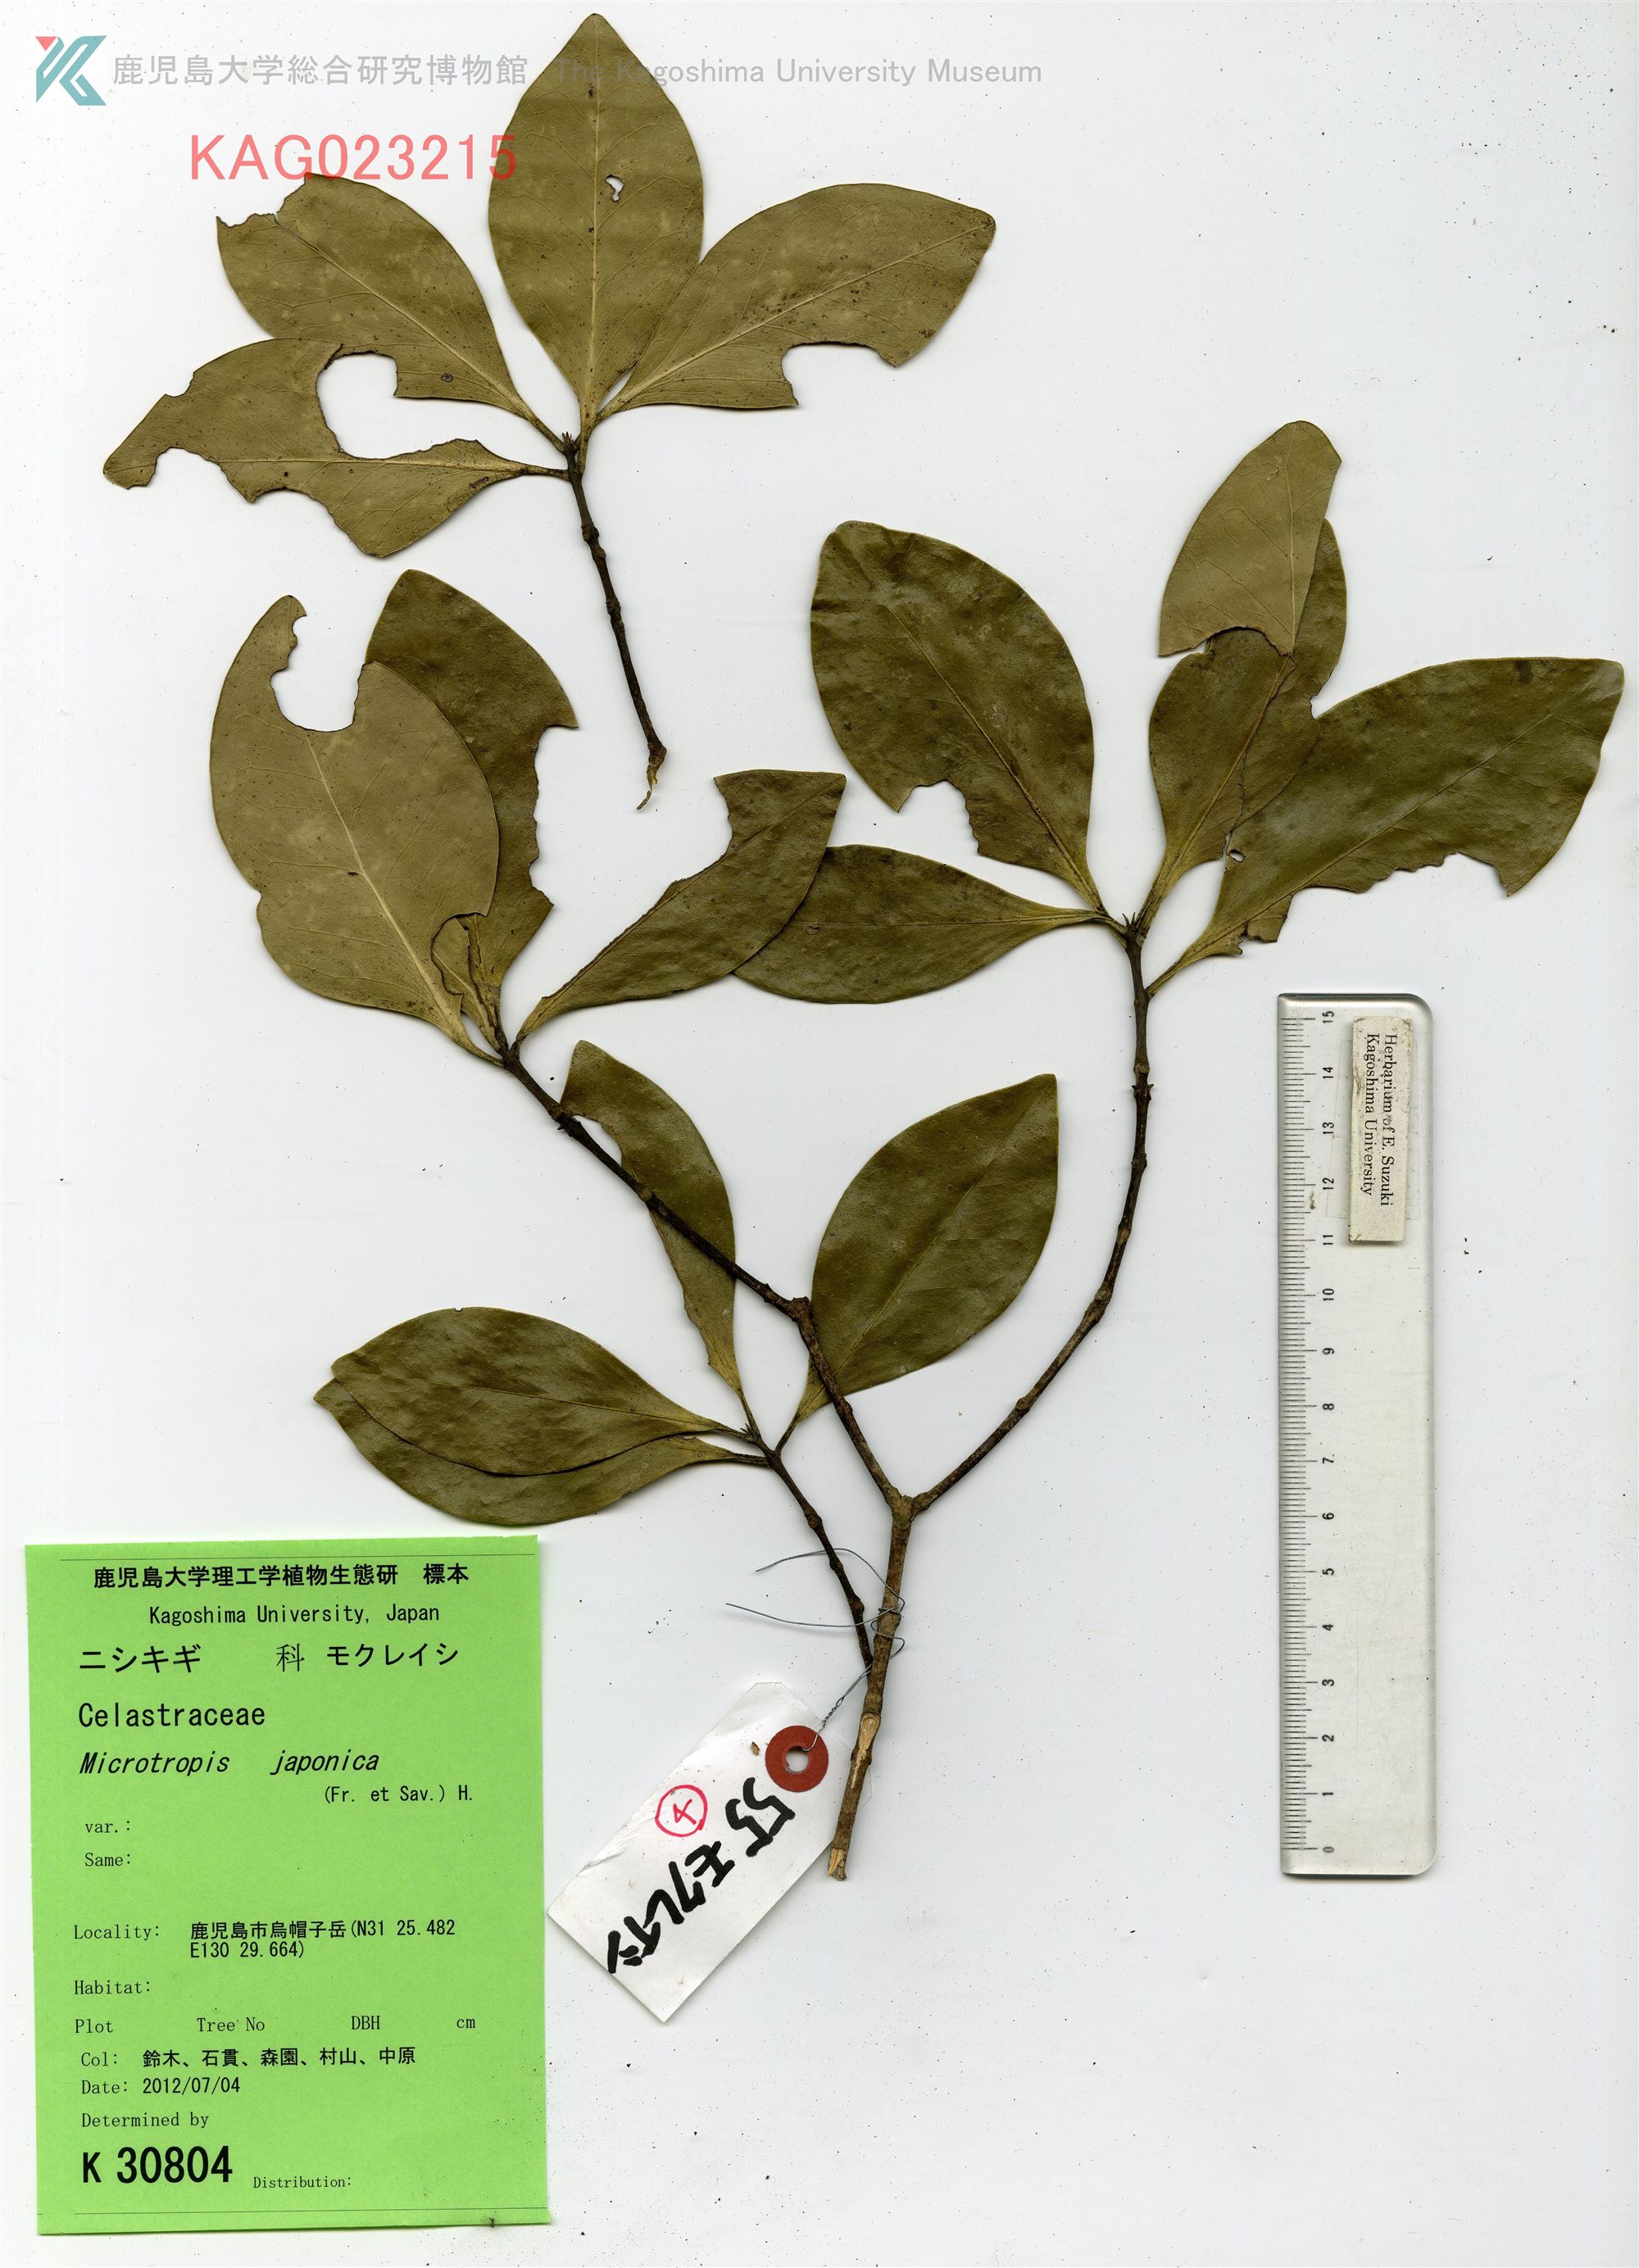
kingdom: Plantae
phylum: Tracheophyta
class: Magnoliopsida
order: Celastrales
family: Celastraceae
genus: Microtropis
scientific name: Microtropis japonica
